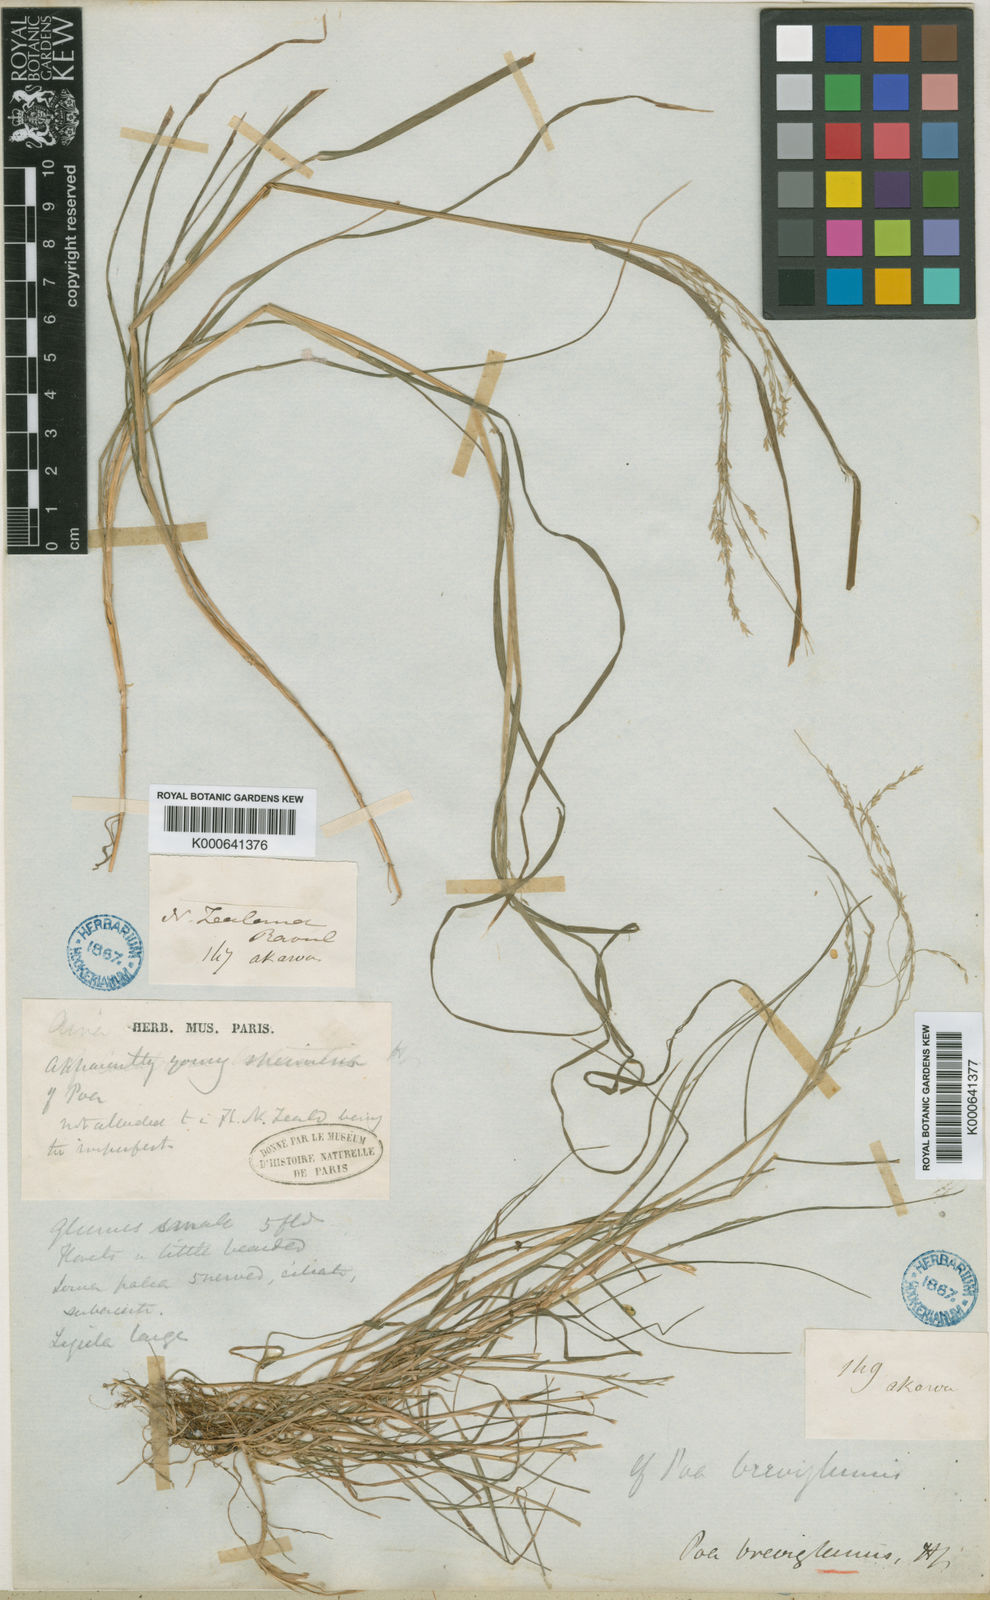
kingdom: Plantae
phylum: Tracheophyta
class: Liliopsida
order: Poales
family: Poaceae
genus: Poa
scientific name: Poa
